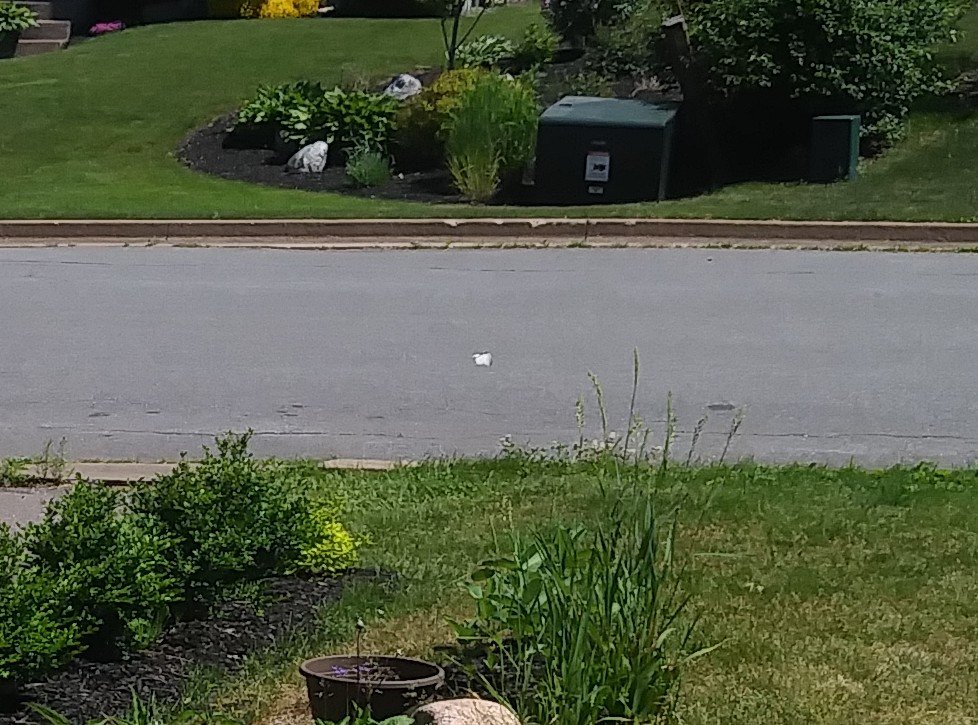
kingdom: Animalia
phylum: Arthropoda
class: Insecta
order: Lepidoptera
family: Pieridae
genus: Pieris
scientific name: Pieris rapae
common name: Cabbage White
